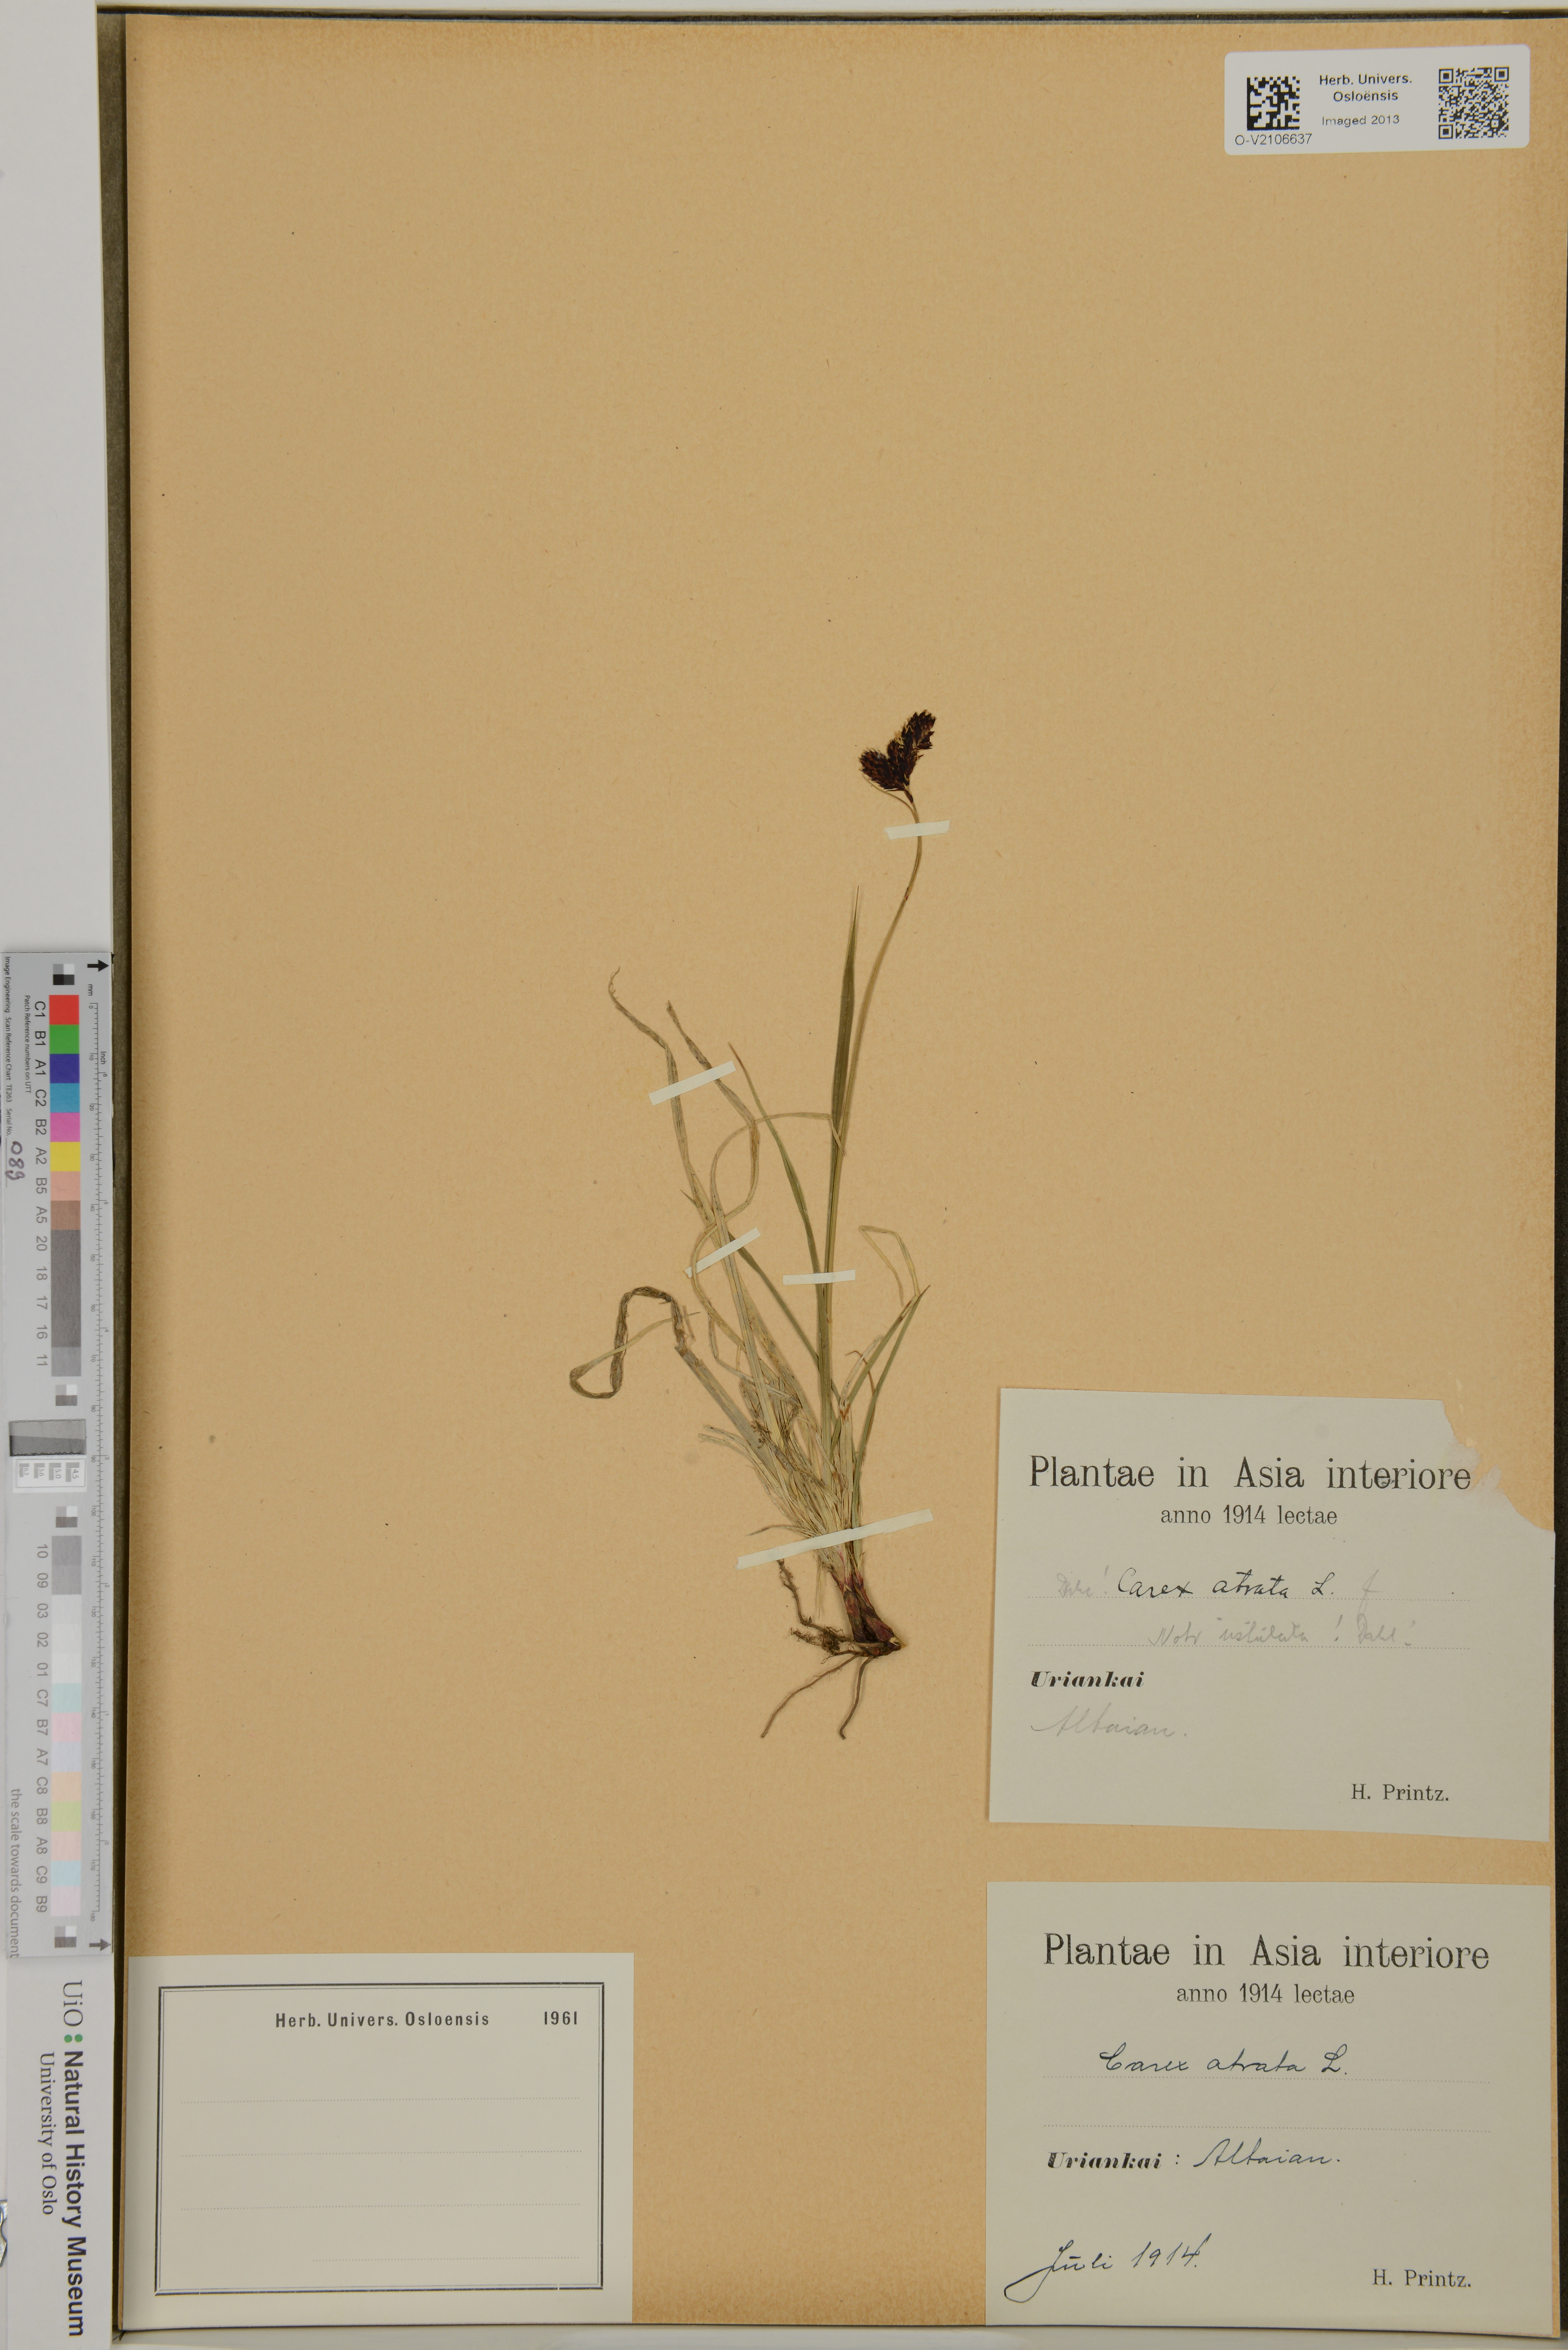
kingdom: Plantae
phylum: Tracheophyta
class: Liliopsida
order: Poales
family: Cyperaceae
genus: Carex
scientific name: Carex atrata
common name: Black alpine sedge
